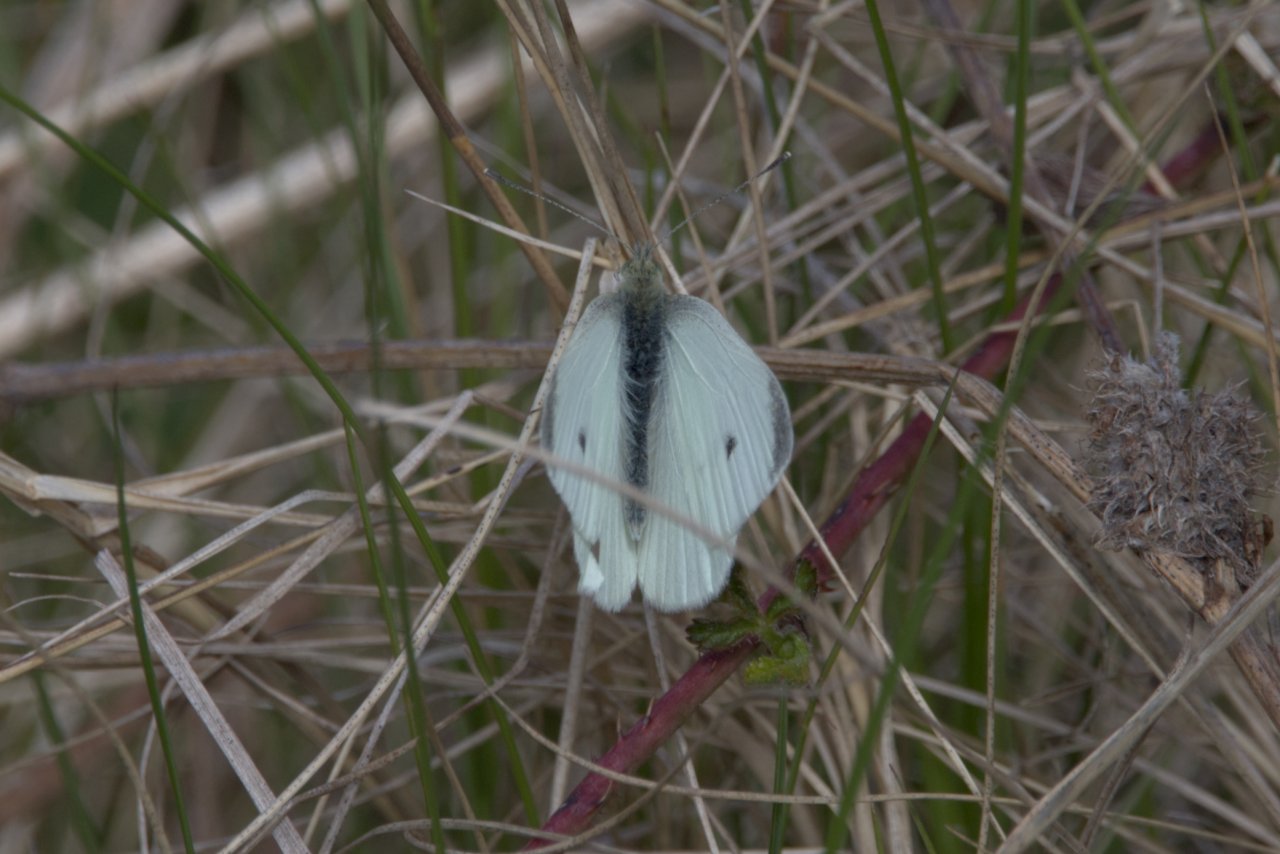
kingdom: Animalia
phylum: Arthropoda
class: Insecta
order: Lepidoptera
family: Pieridae
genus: Pieris
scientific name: Pieris rapae
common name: Cabbage White
